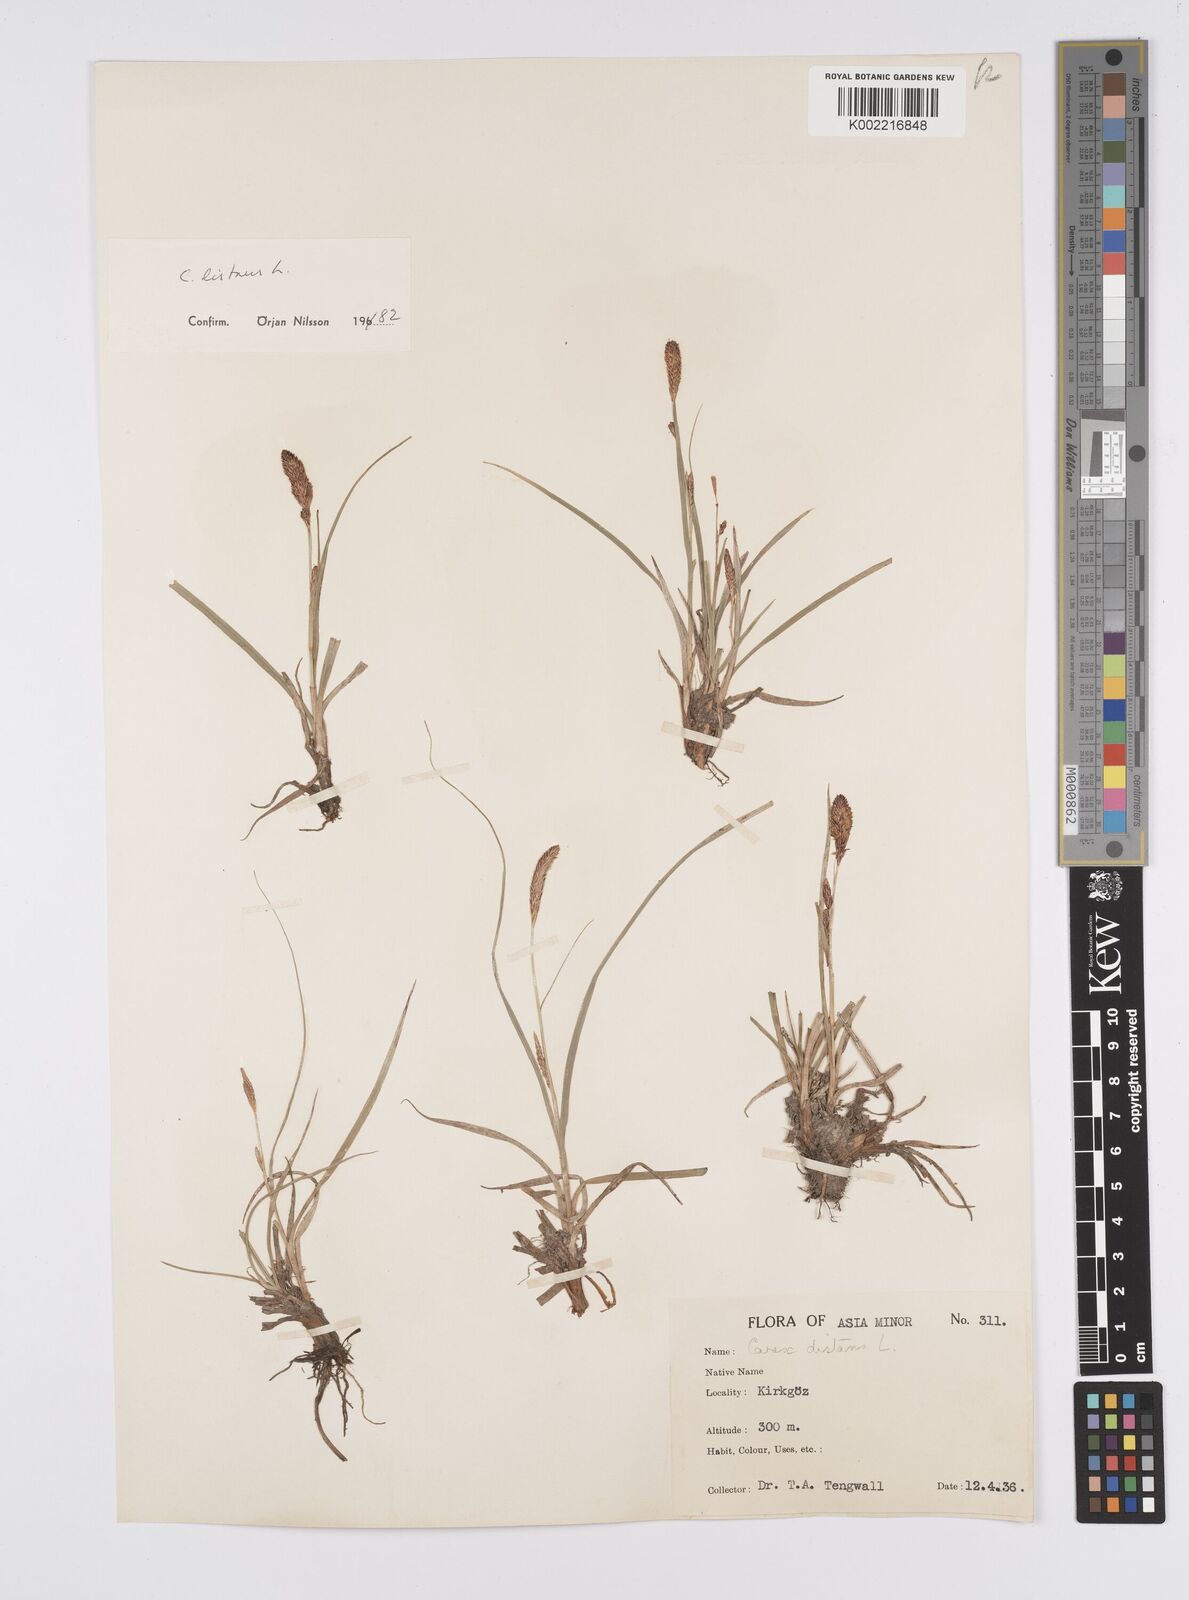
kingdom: Plantae
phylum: Tracheophyta
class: Liliopsida
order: Poales
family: Cyperaceae
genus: Carex
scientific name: Carex distans
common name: Distant sedge
